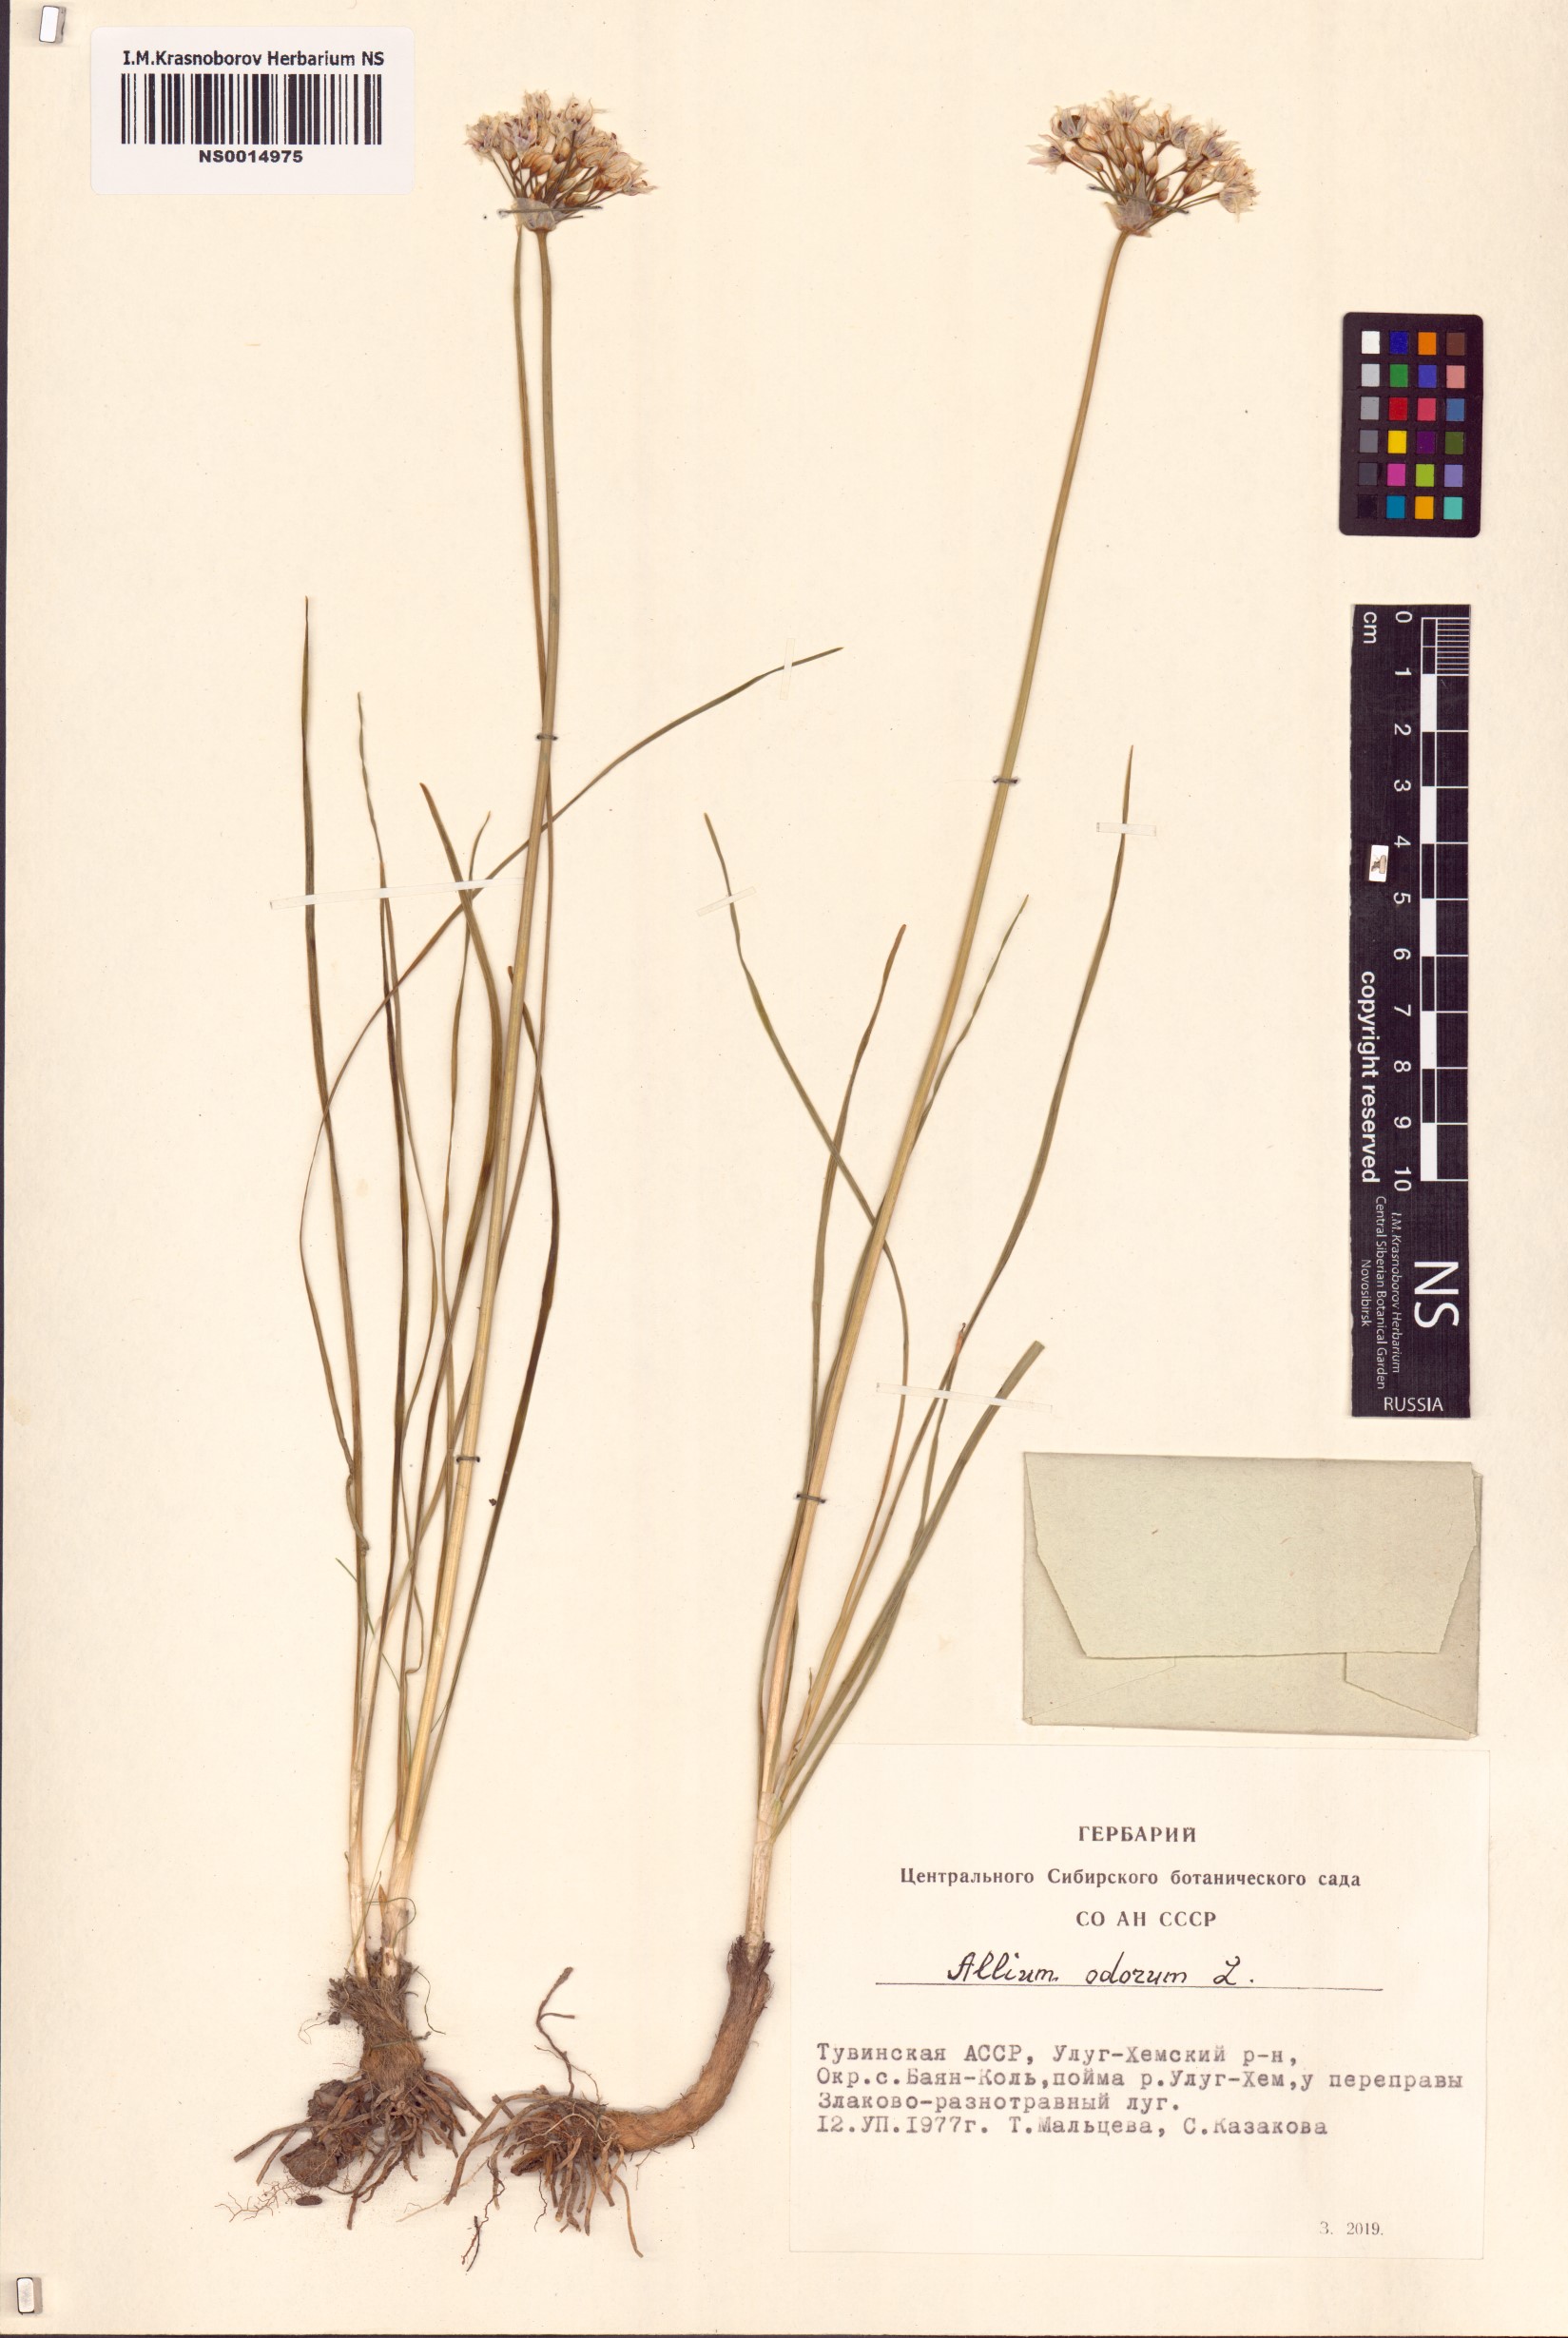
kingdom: Plantae
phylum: Tracheophyta
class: Liliopsida
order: Asparagales
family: Amaryllidaceae
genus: Allium
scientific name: Allium ramosum
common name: Fragrant garlic
